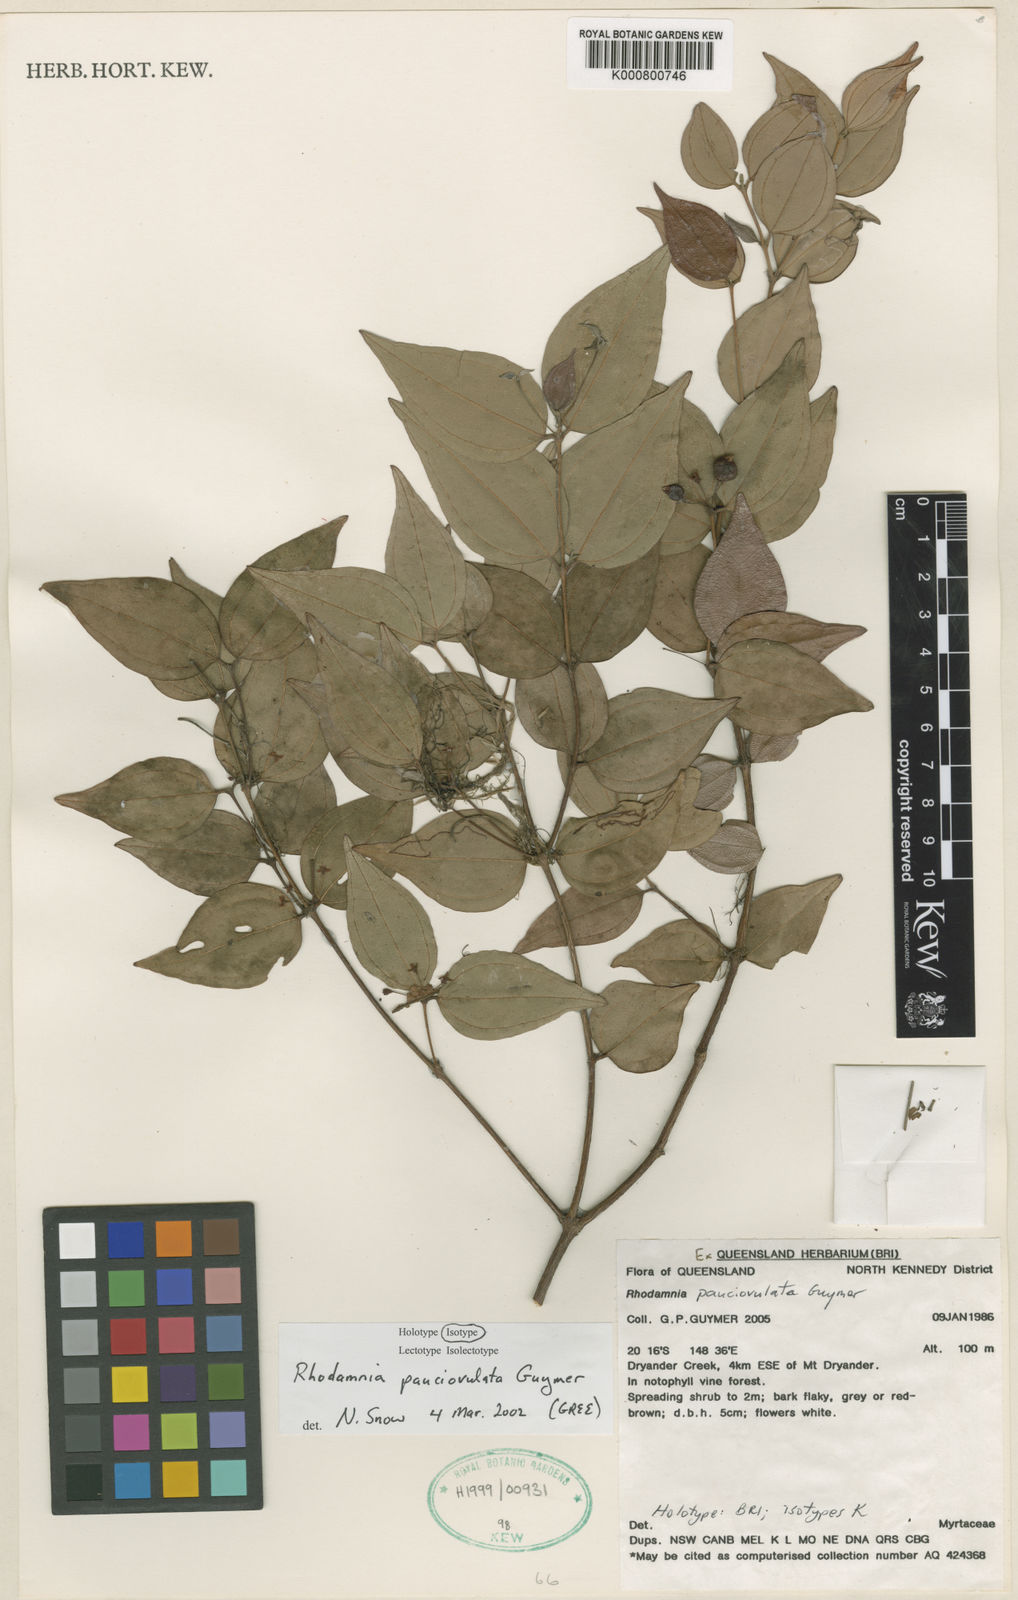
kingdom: Plantae
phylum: Tracheophyta
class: Magnoliopsida
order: Myrtales
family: Myrtaceae
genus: Rhodamnia
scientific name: Rhodamnia pauciovulata
